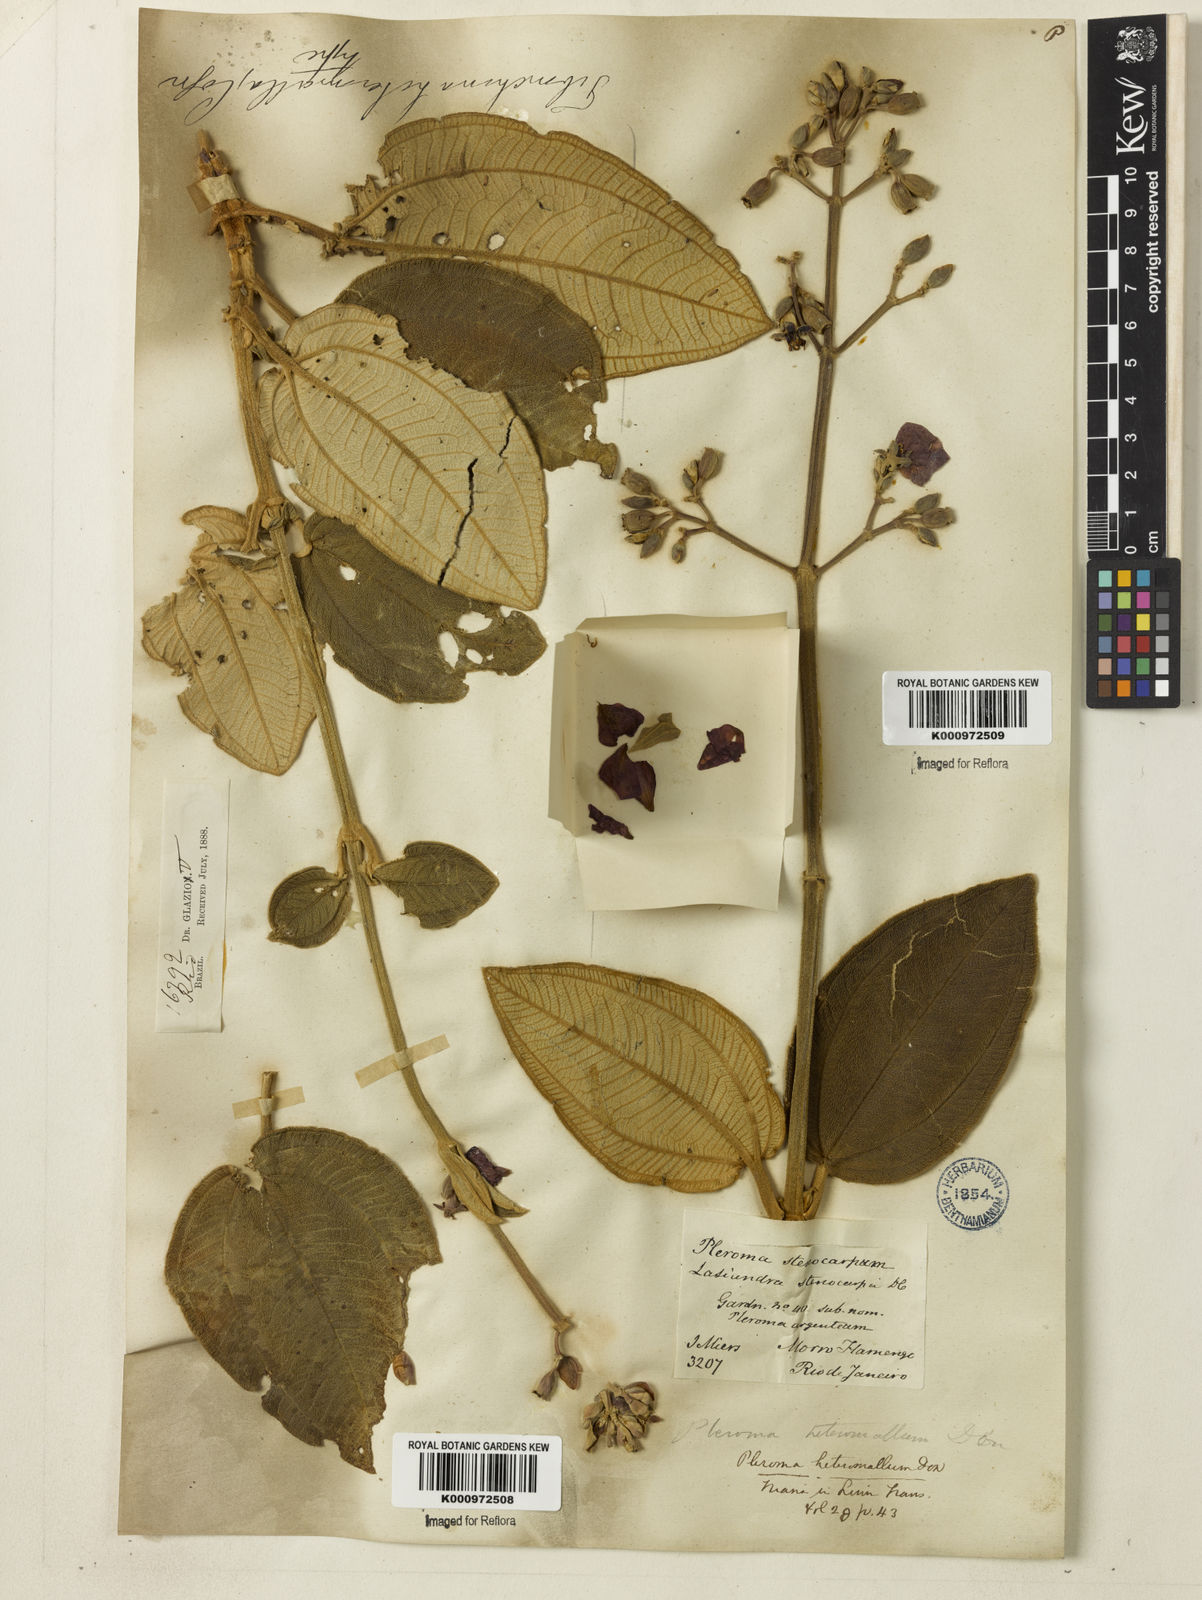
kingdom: Plantae
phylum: Tracheophyta
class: Magnoliopsida
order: Myrtales
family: Melastomataceae
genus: Pleroma
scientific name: Pleroma heteromallum
